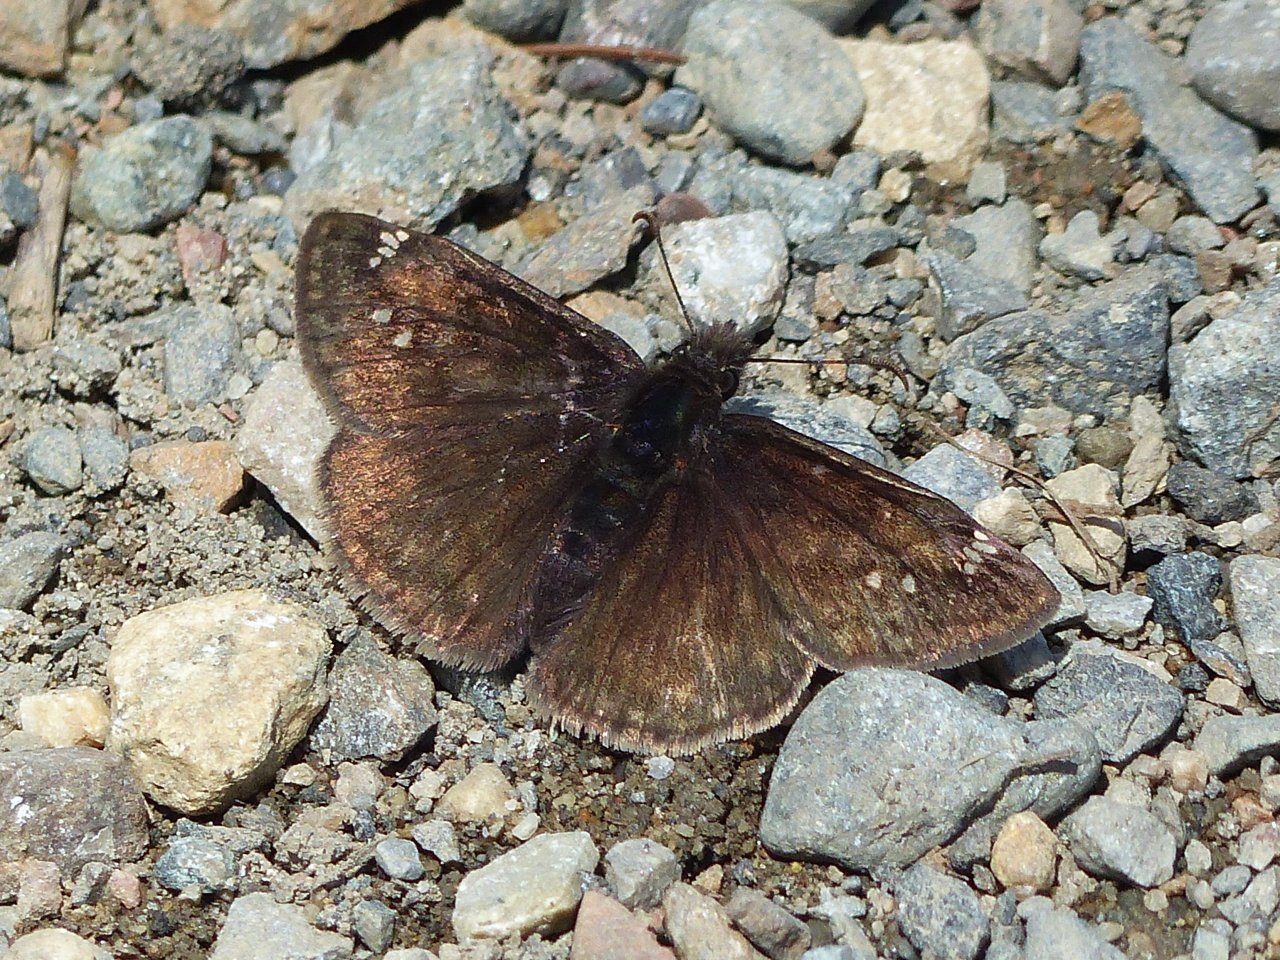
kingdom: Animalia
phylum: Arthropoda
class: Insecta
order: Lepidoptera
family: Hesperiidae
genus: Gesta
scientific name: Gesta
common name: Juvenal's Duskywing
